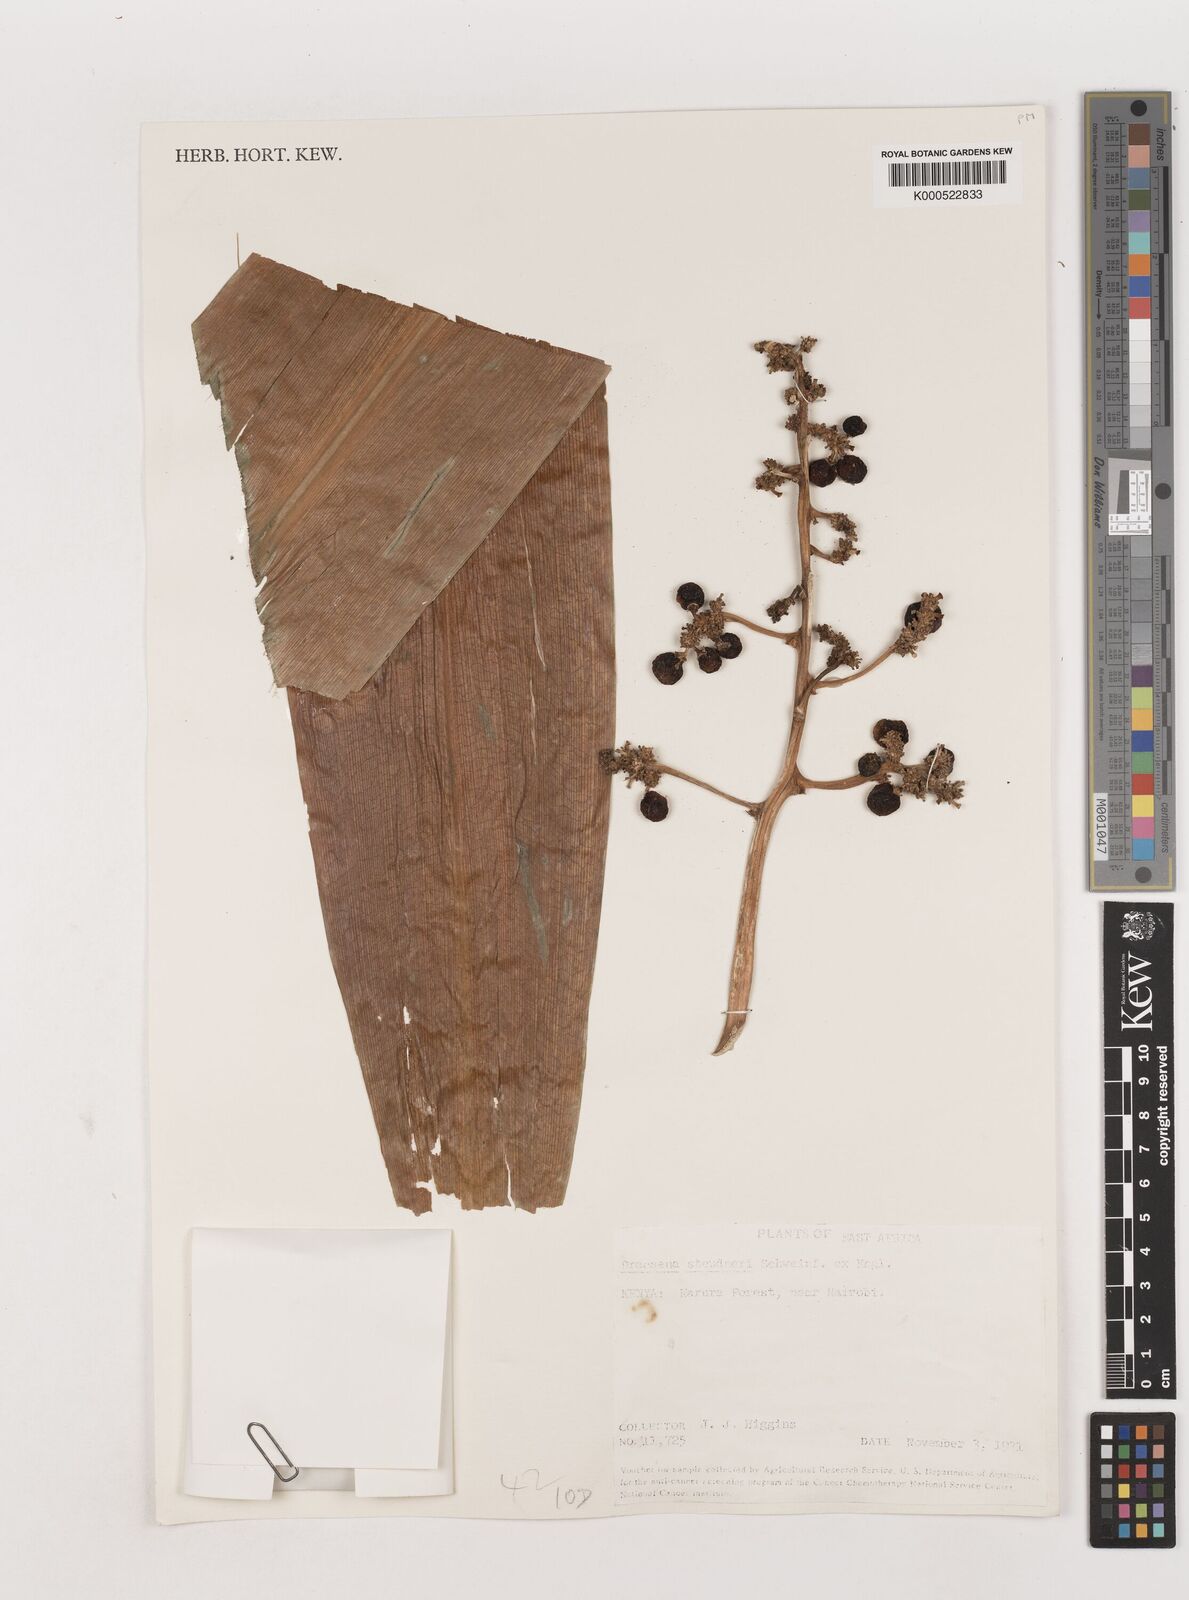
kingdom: Plantae
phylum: Tracheophyta
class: Liliopsida
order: Asparagales
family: Asparagaceae
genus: Dracaena
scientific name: Dracaena steudneri
